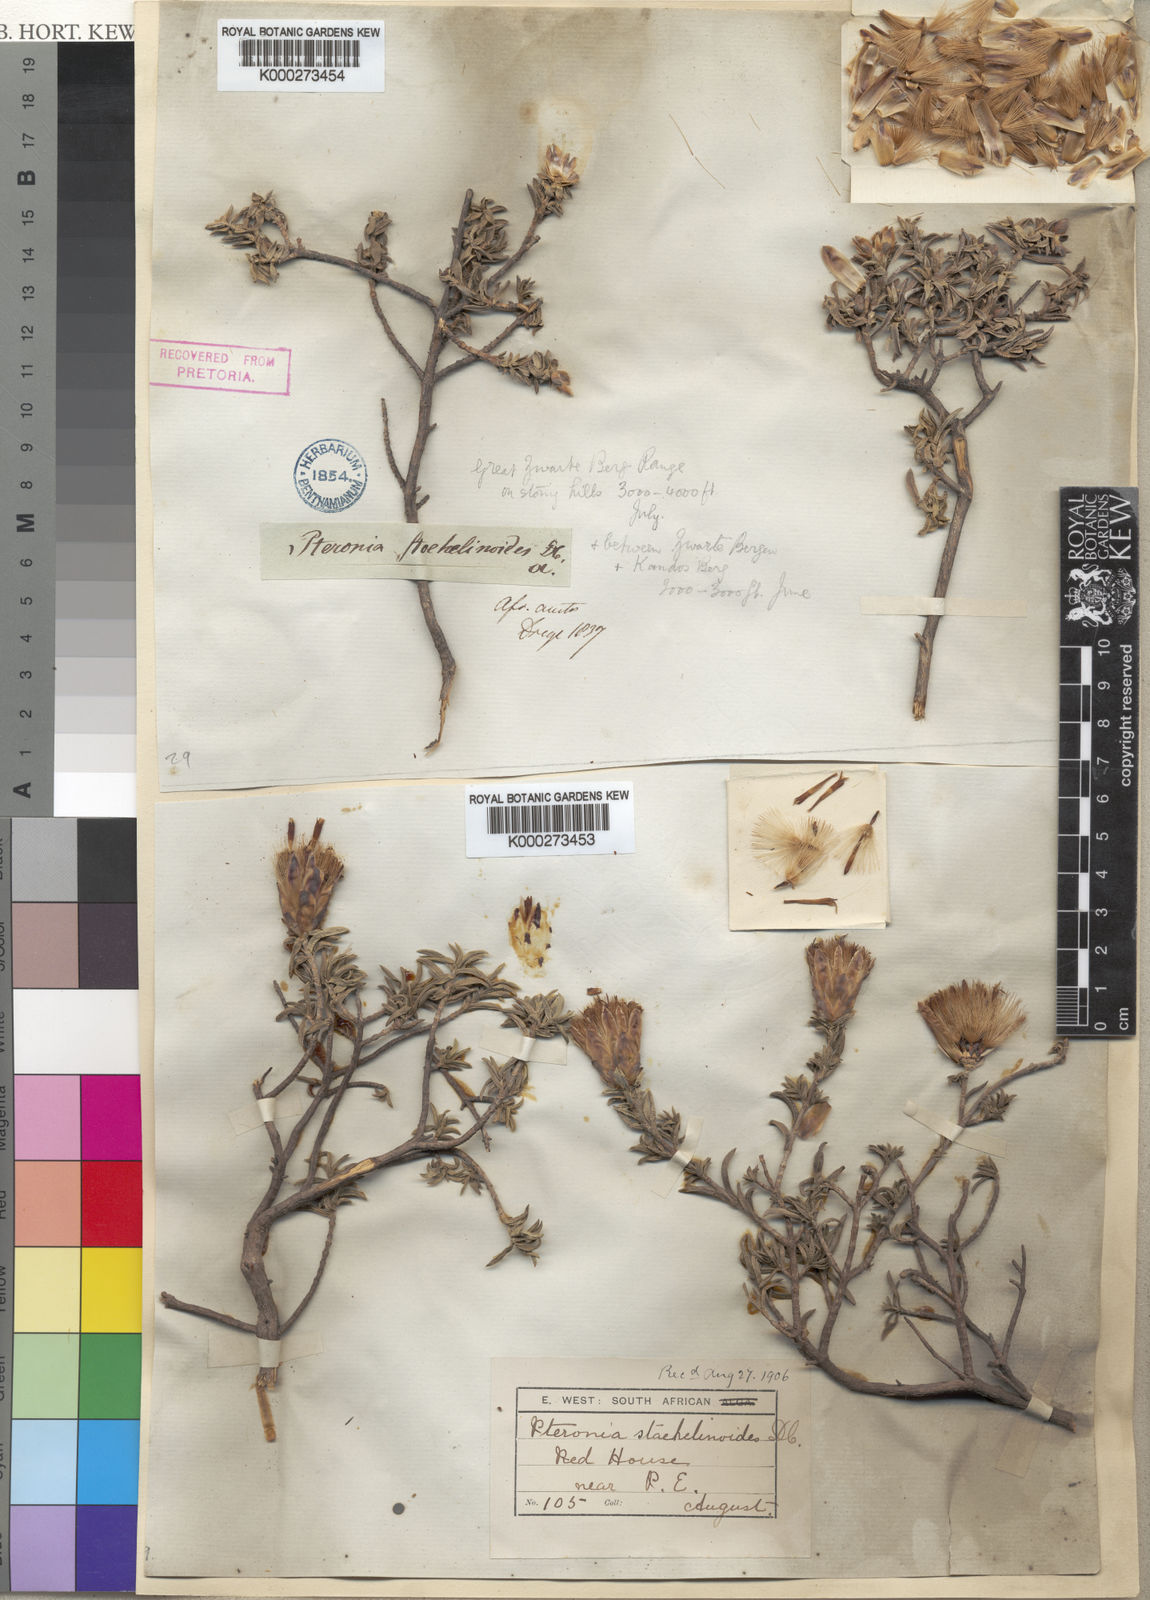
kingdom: Plantae
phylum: Tracheophyta
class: Magnoliopsida
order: Asterales
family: Asteraceae
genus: Pteronia
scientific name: Pteronia stoehelinoides
